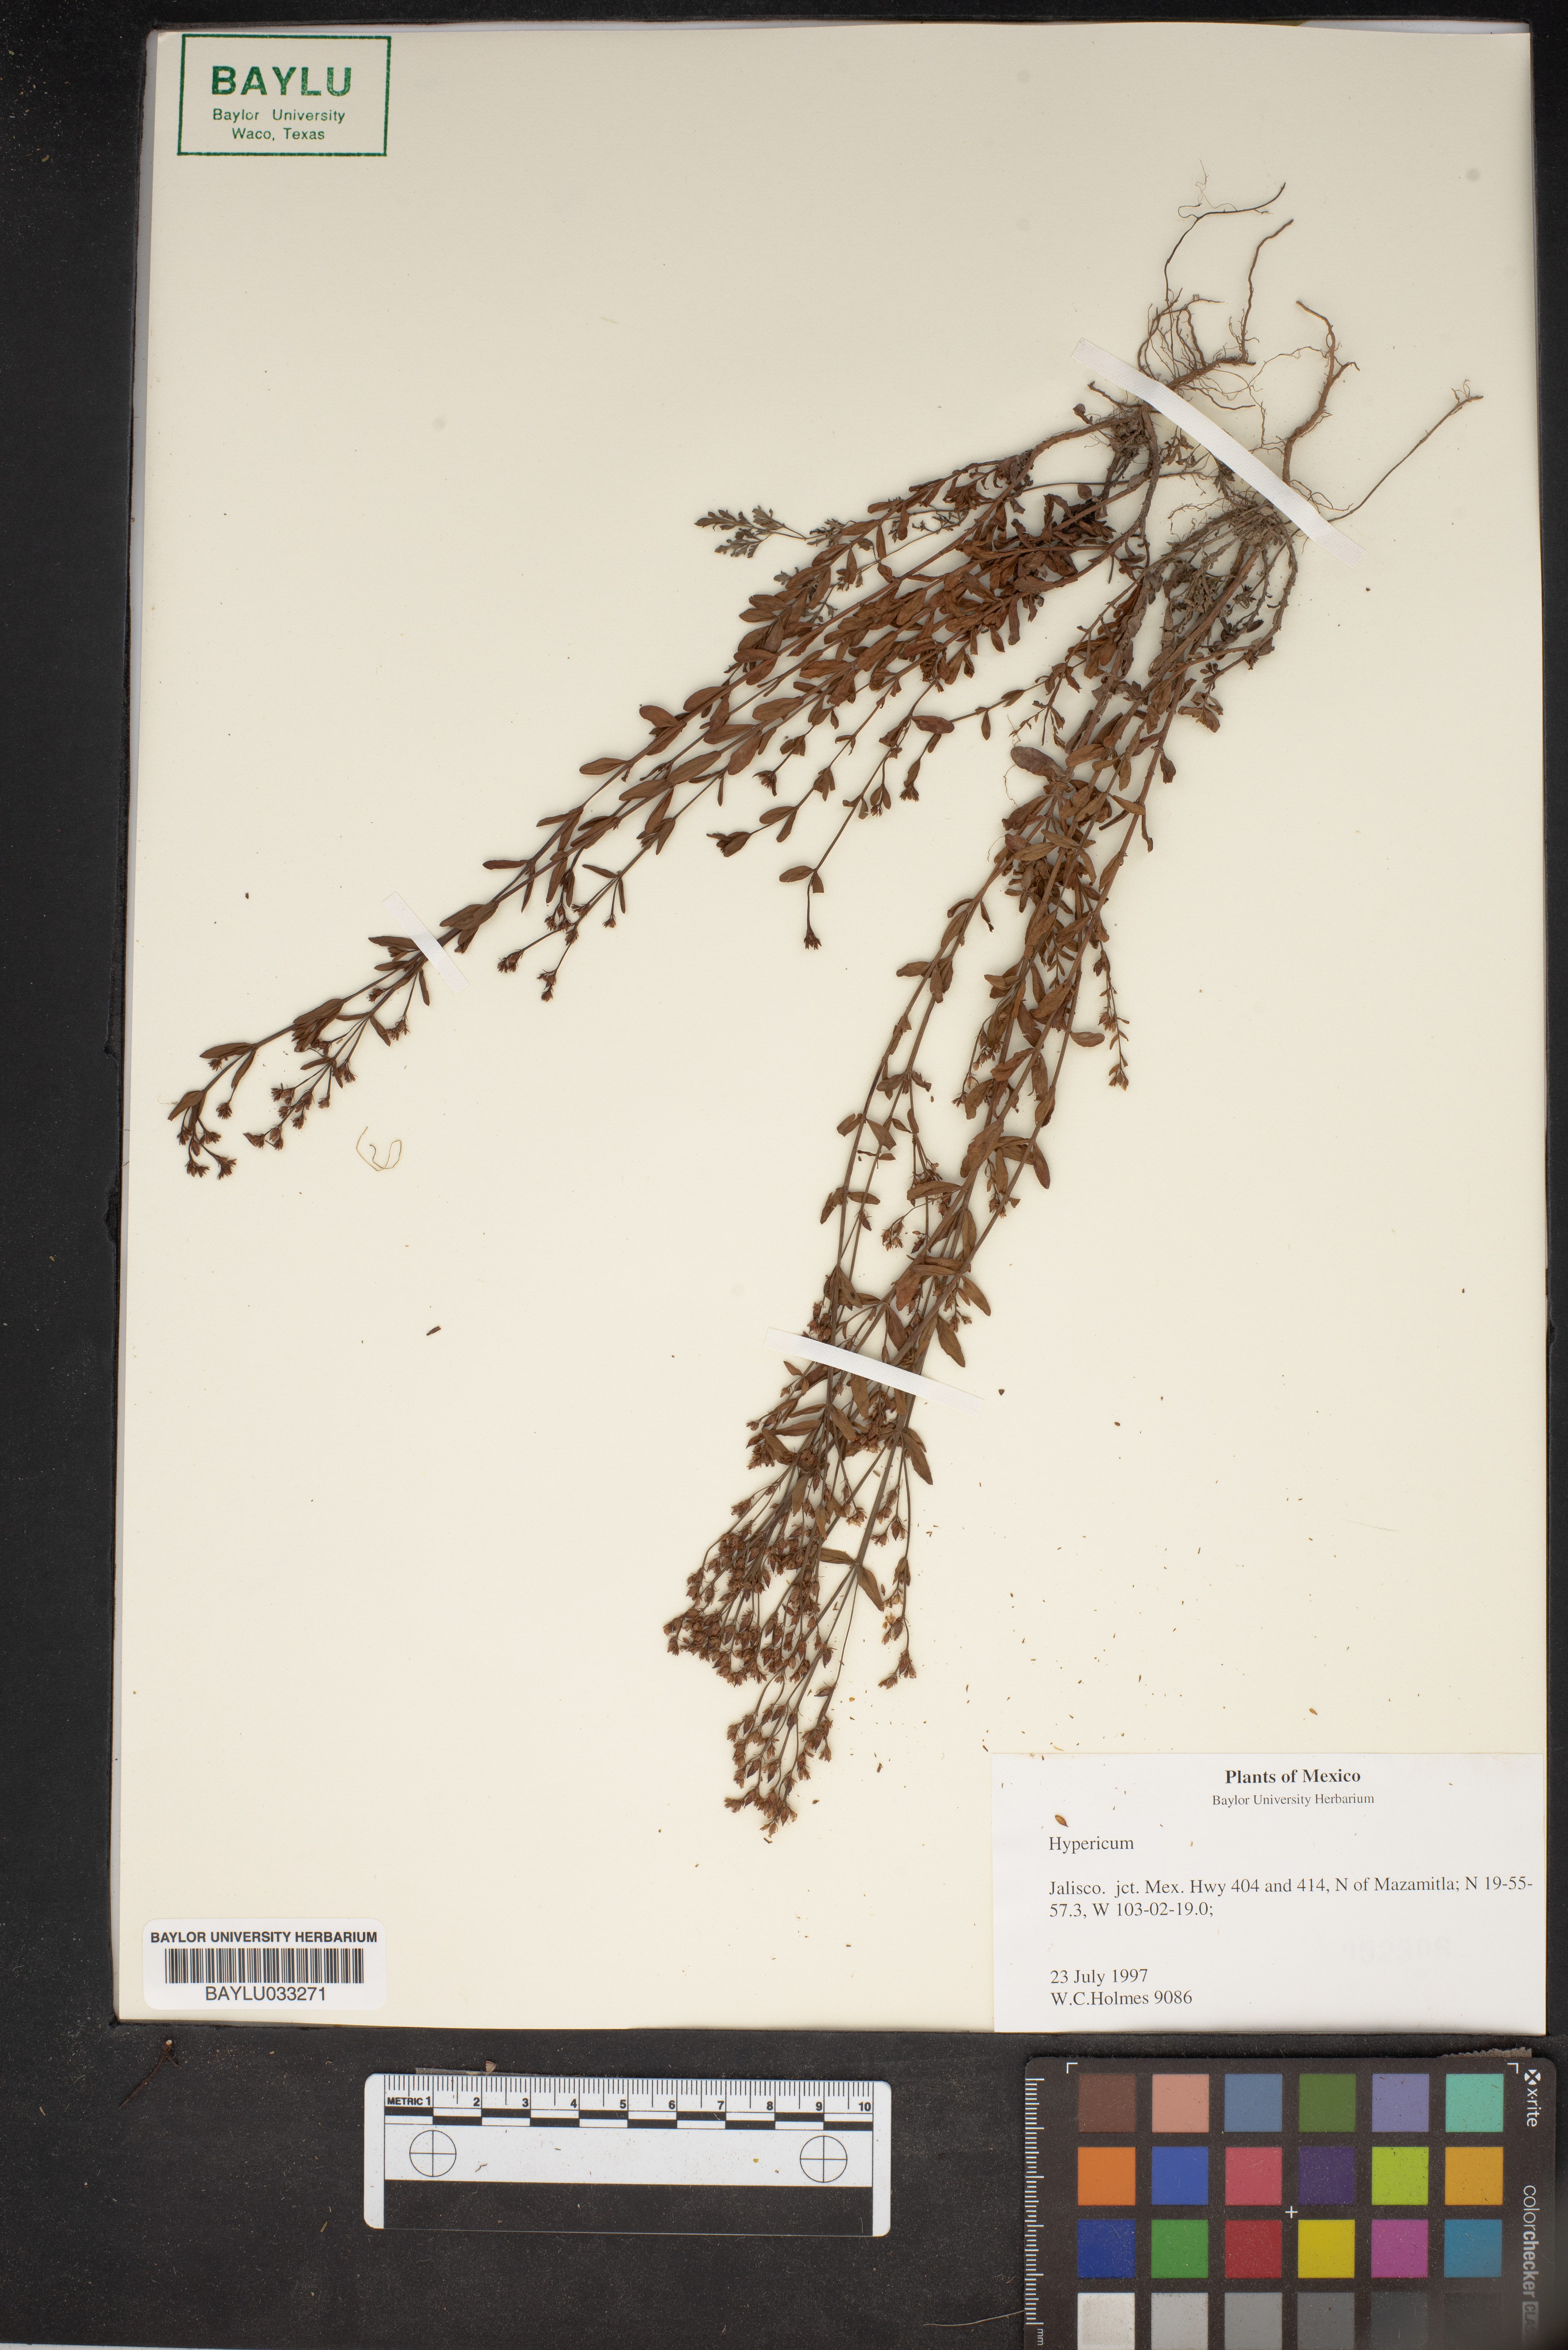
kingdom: Plantae
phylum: Tracheophyta
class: Magnoliopsida
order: Malpighiales
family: Hypericaceae
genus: Hypericum
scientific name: Hypericum
